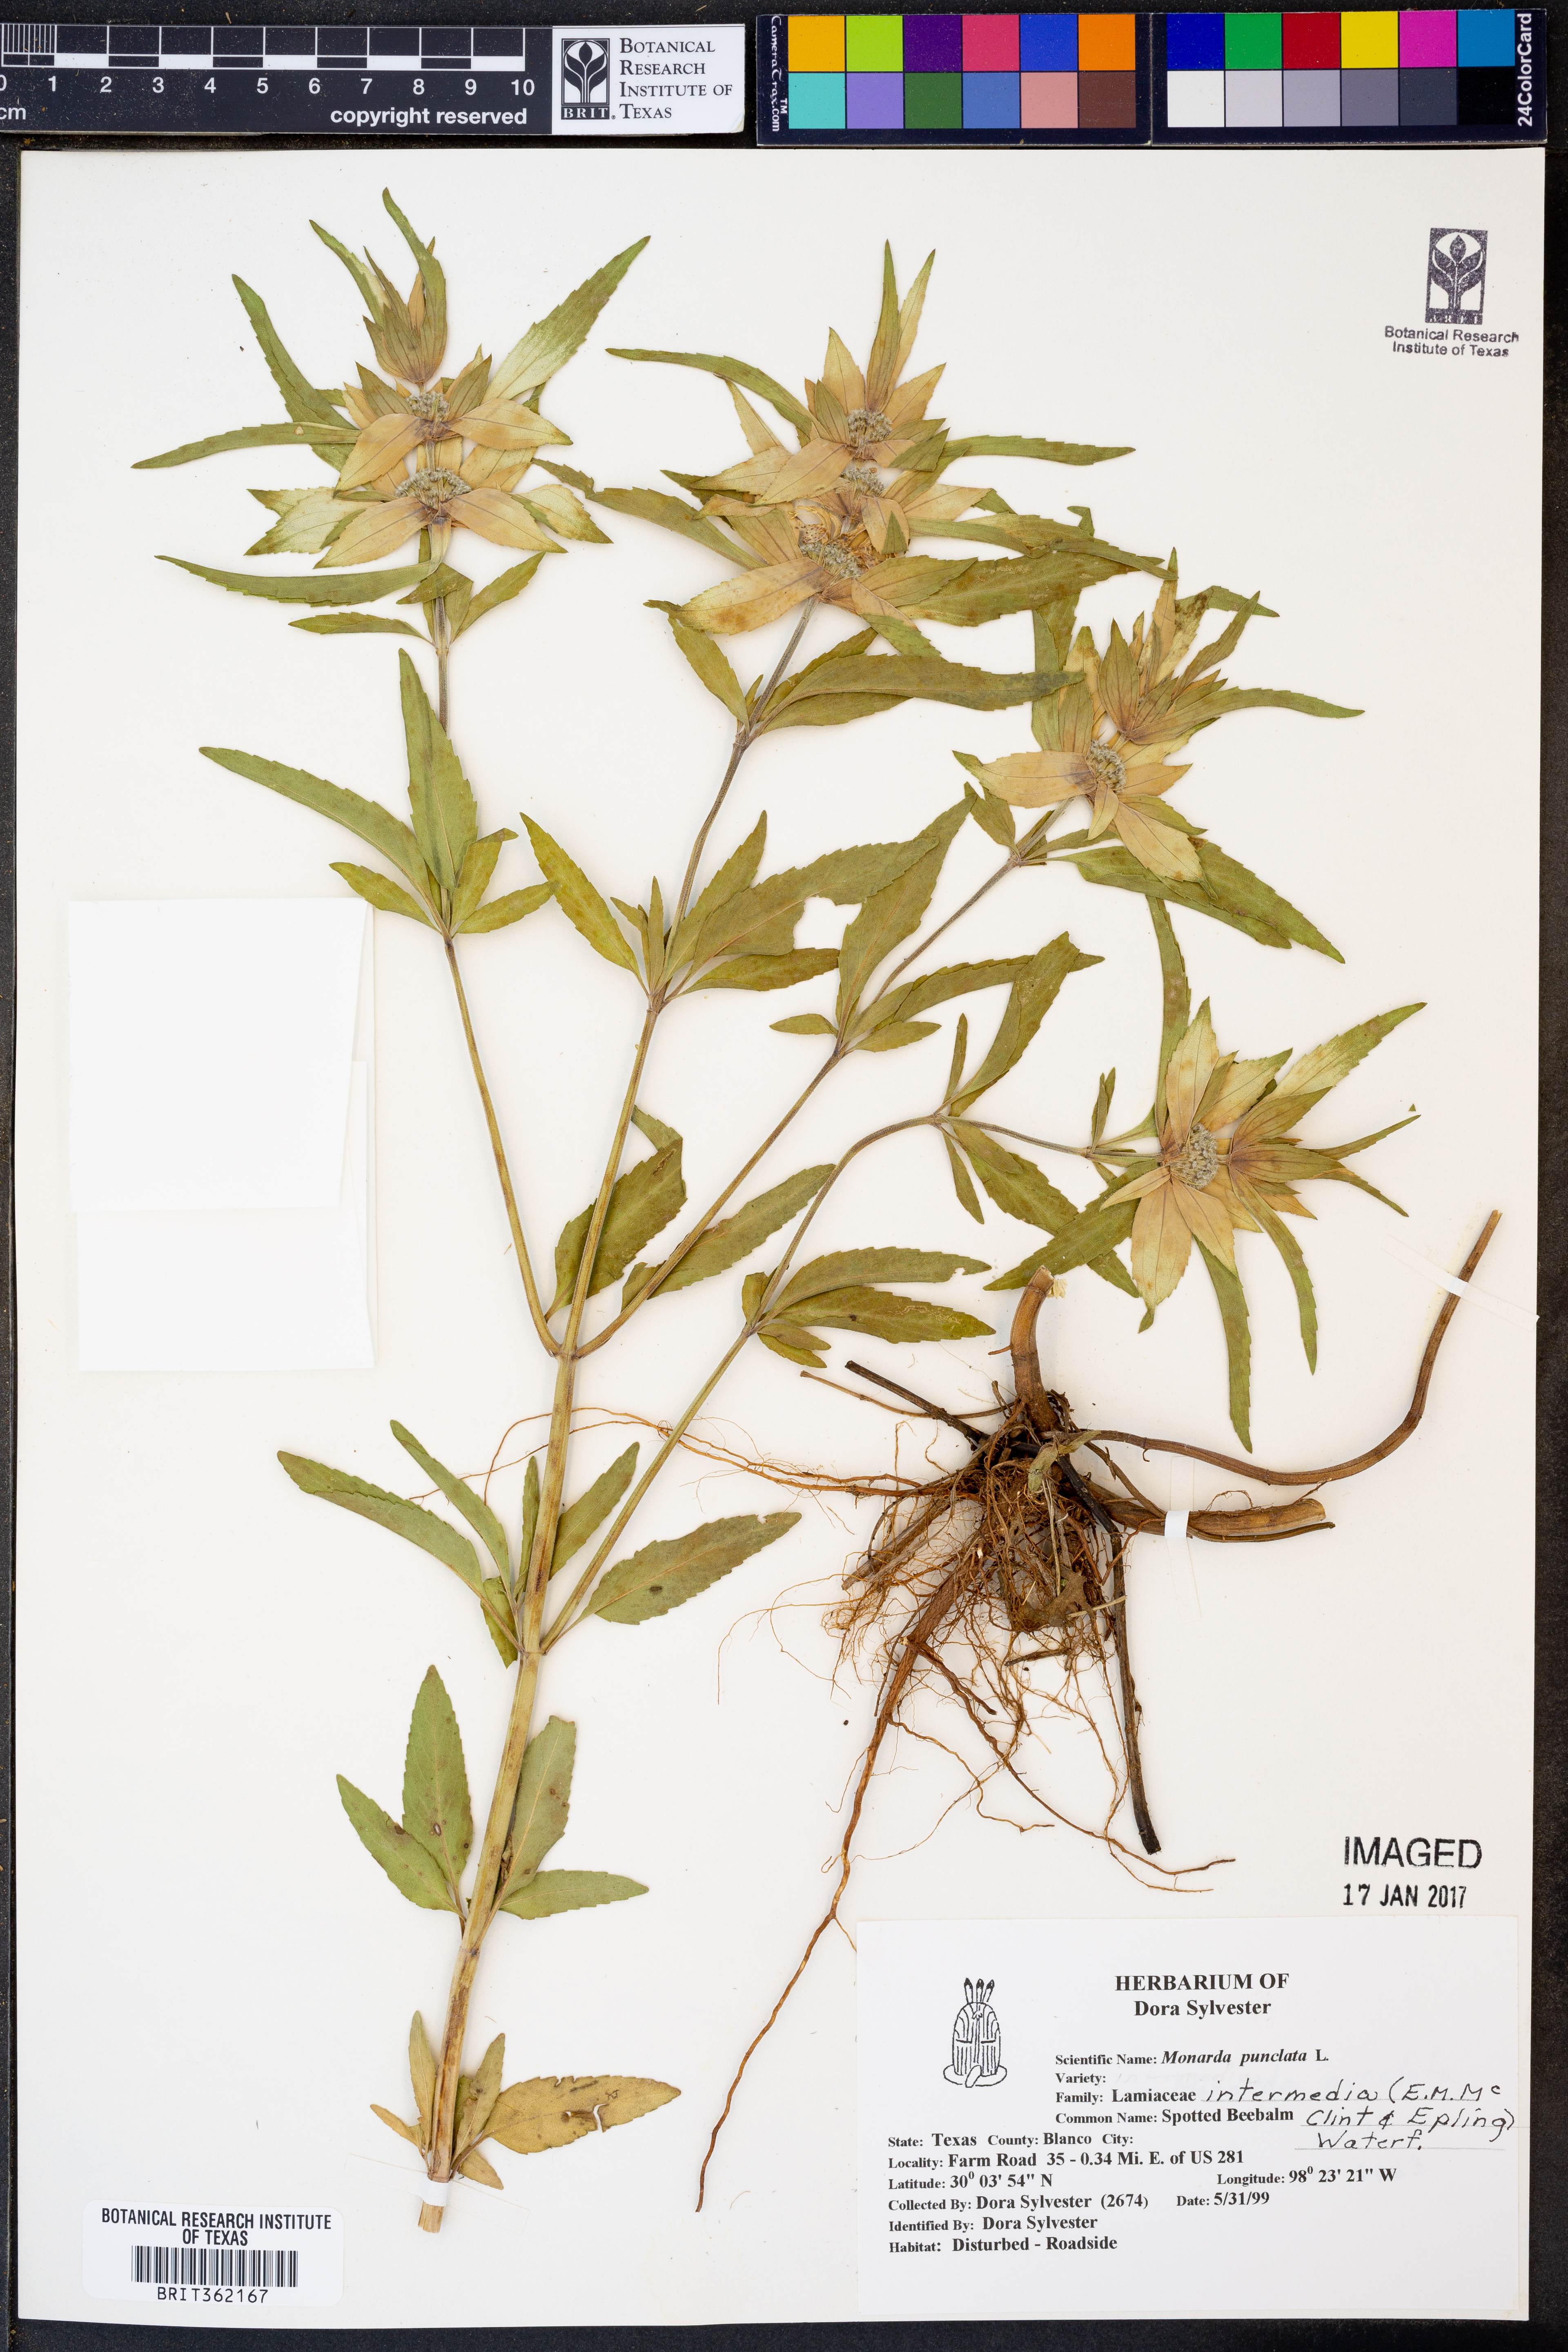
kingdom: Plantae
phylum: Tracheophyta
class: Magnoliopsida
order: Lamiales
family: Lamiaceae
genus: Monarda
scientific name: Monarda punctata
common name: Dotted monarda
